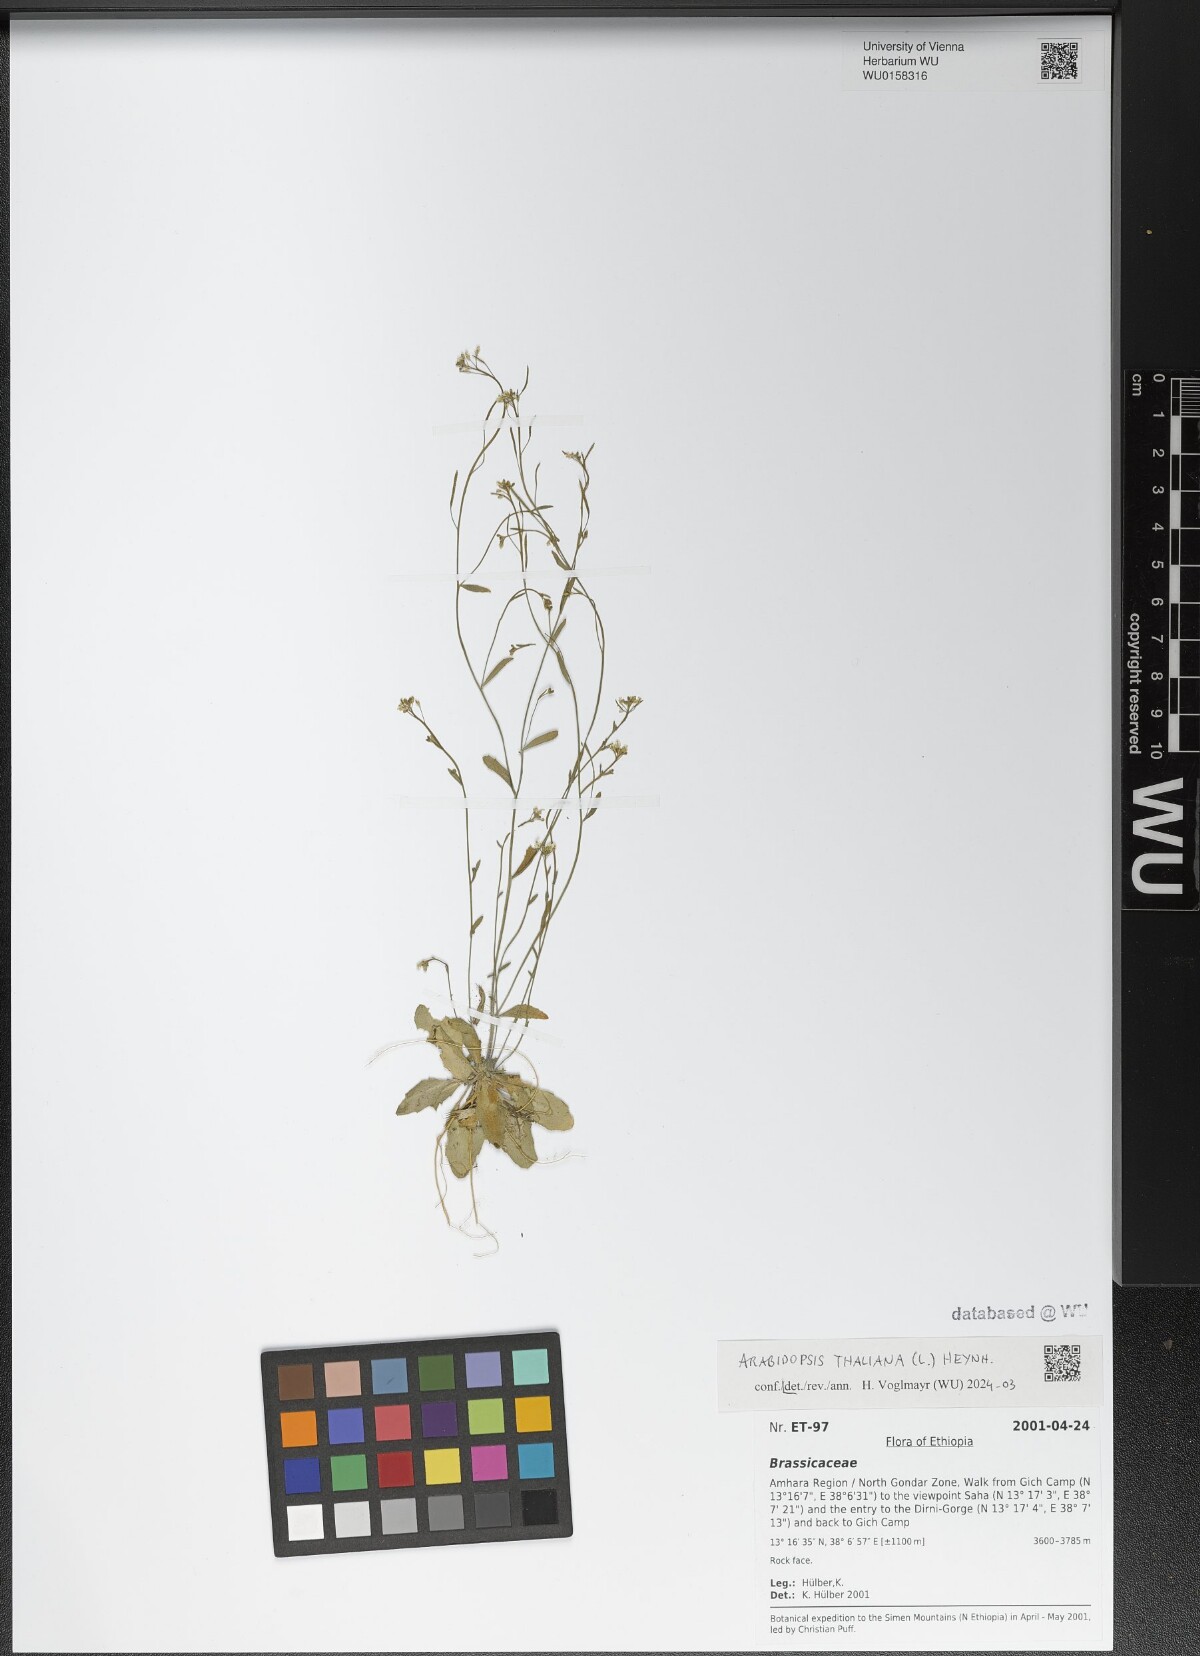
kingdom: Plantae
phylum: Tracheophyta
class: Magnoliopsida
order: Brassicales
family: Brassicaceae
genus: Arabidopsis
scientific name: Arabidopsis thaliana
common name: Thale cress
